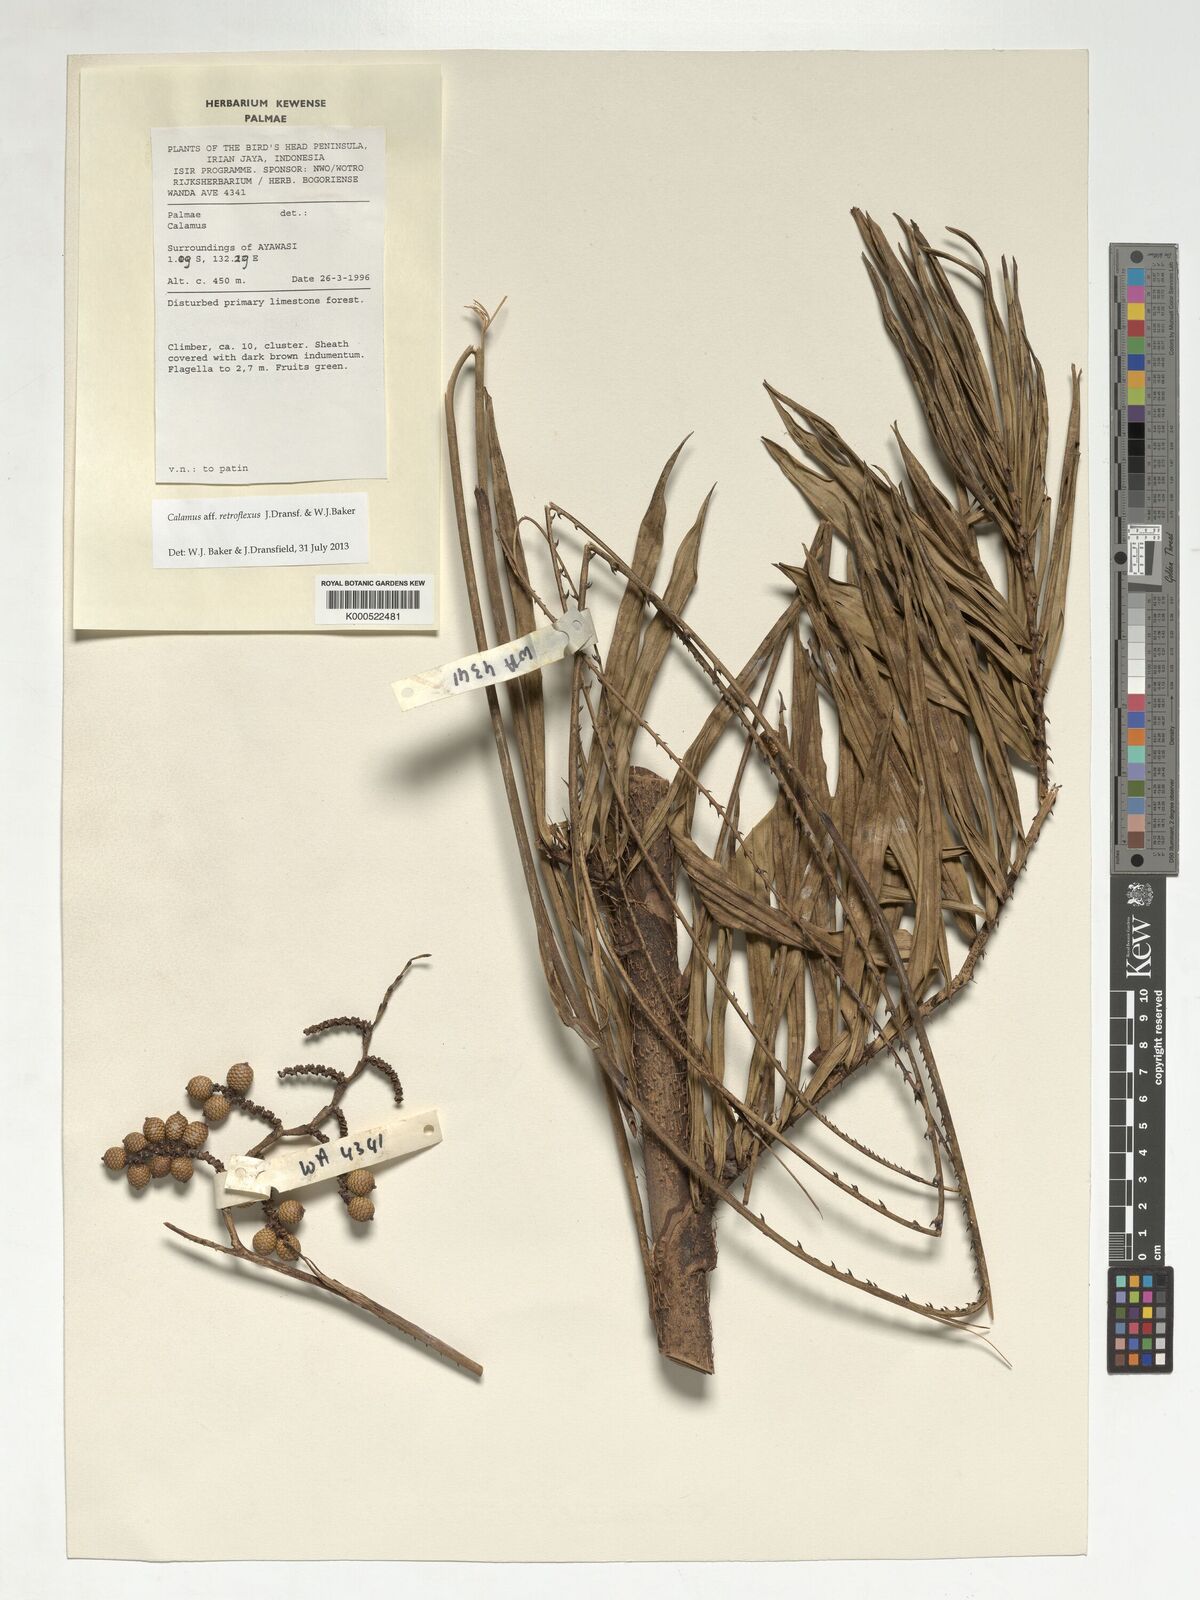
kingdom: Plantae
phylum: Tracheophyta
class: Liliopsida
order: Arecales
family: Arecaceae
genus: Calamus
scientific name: Calamus
